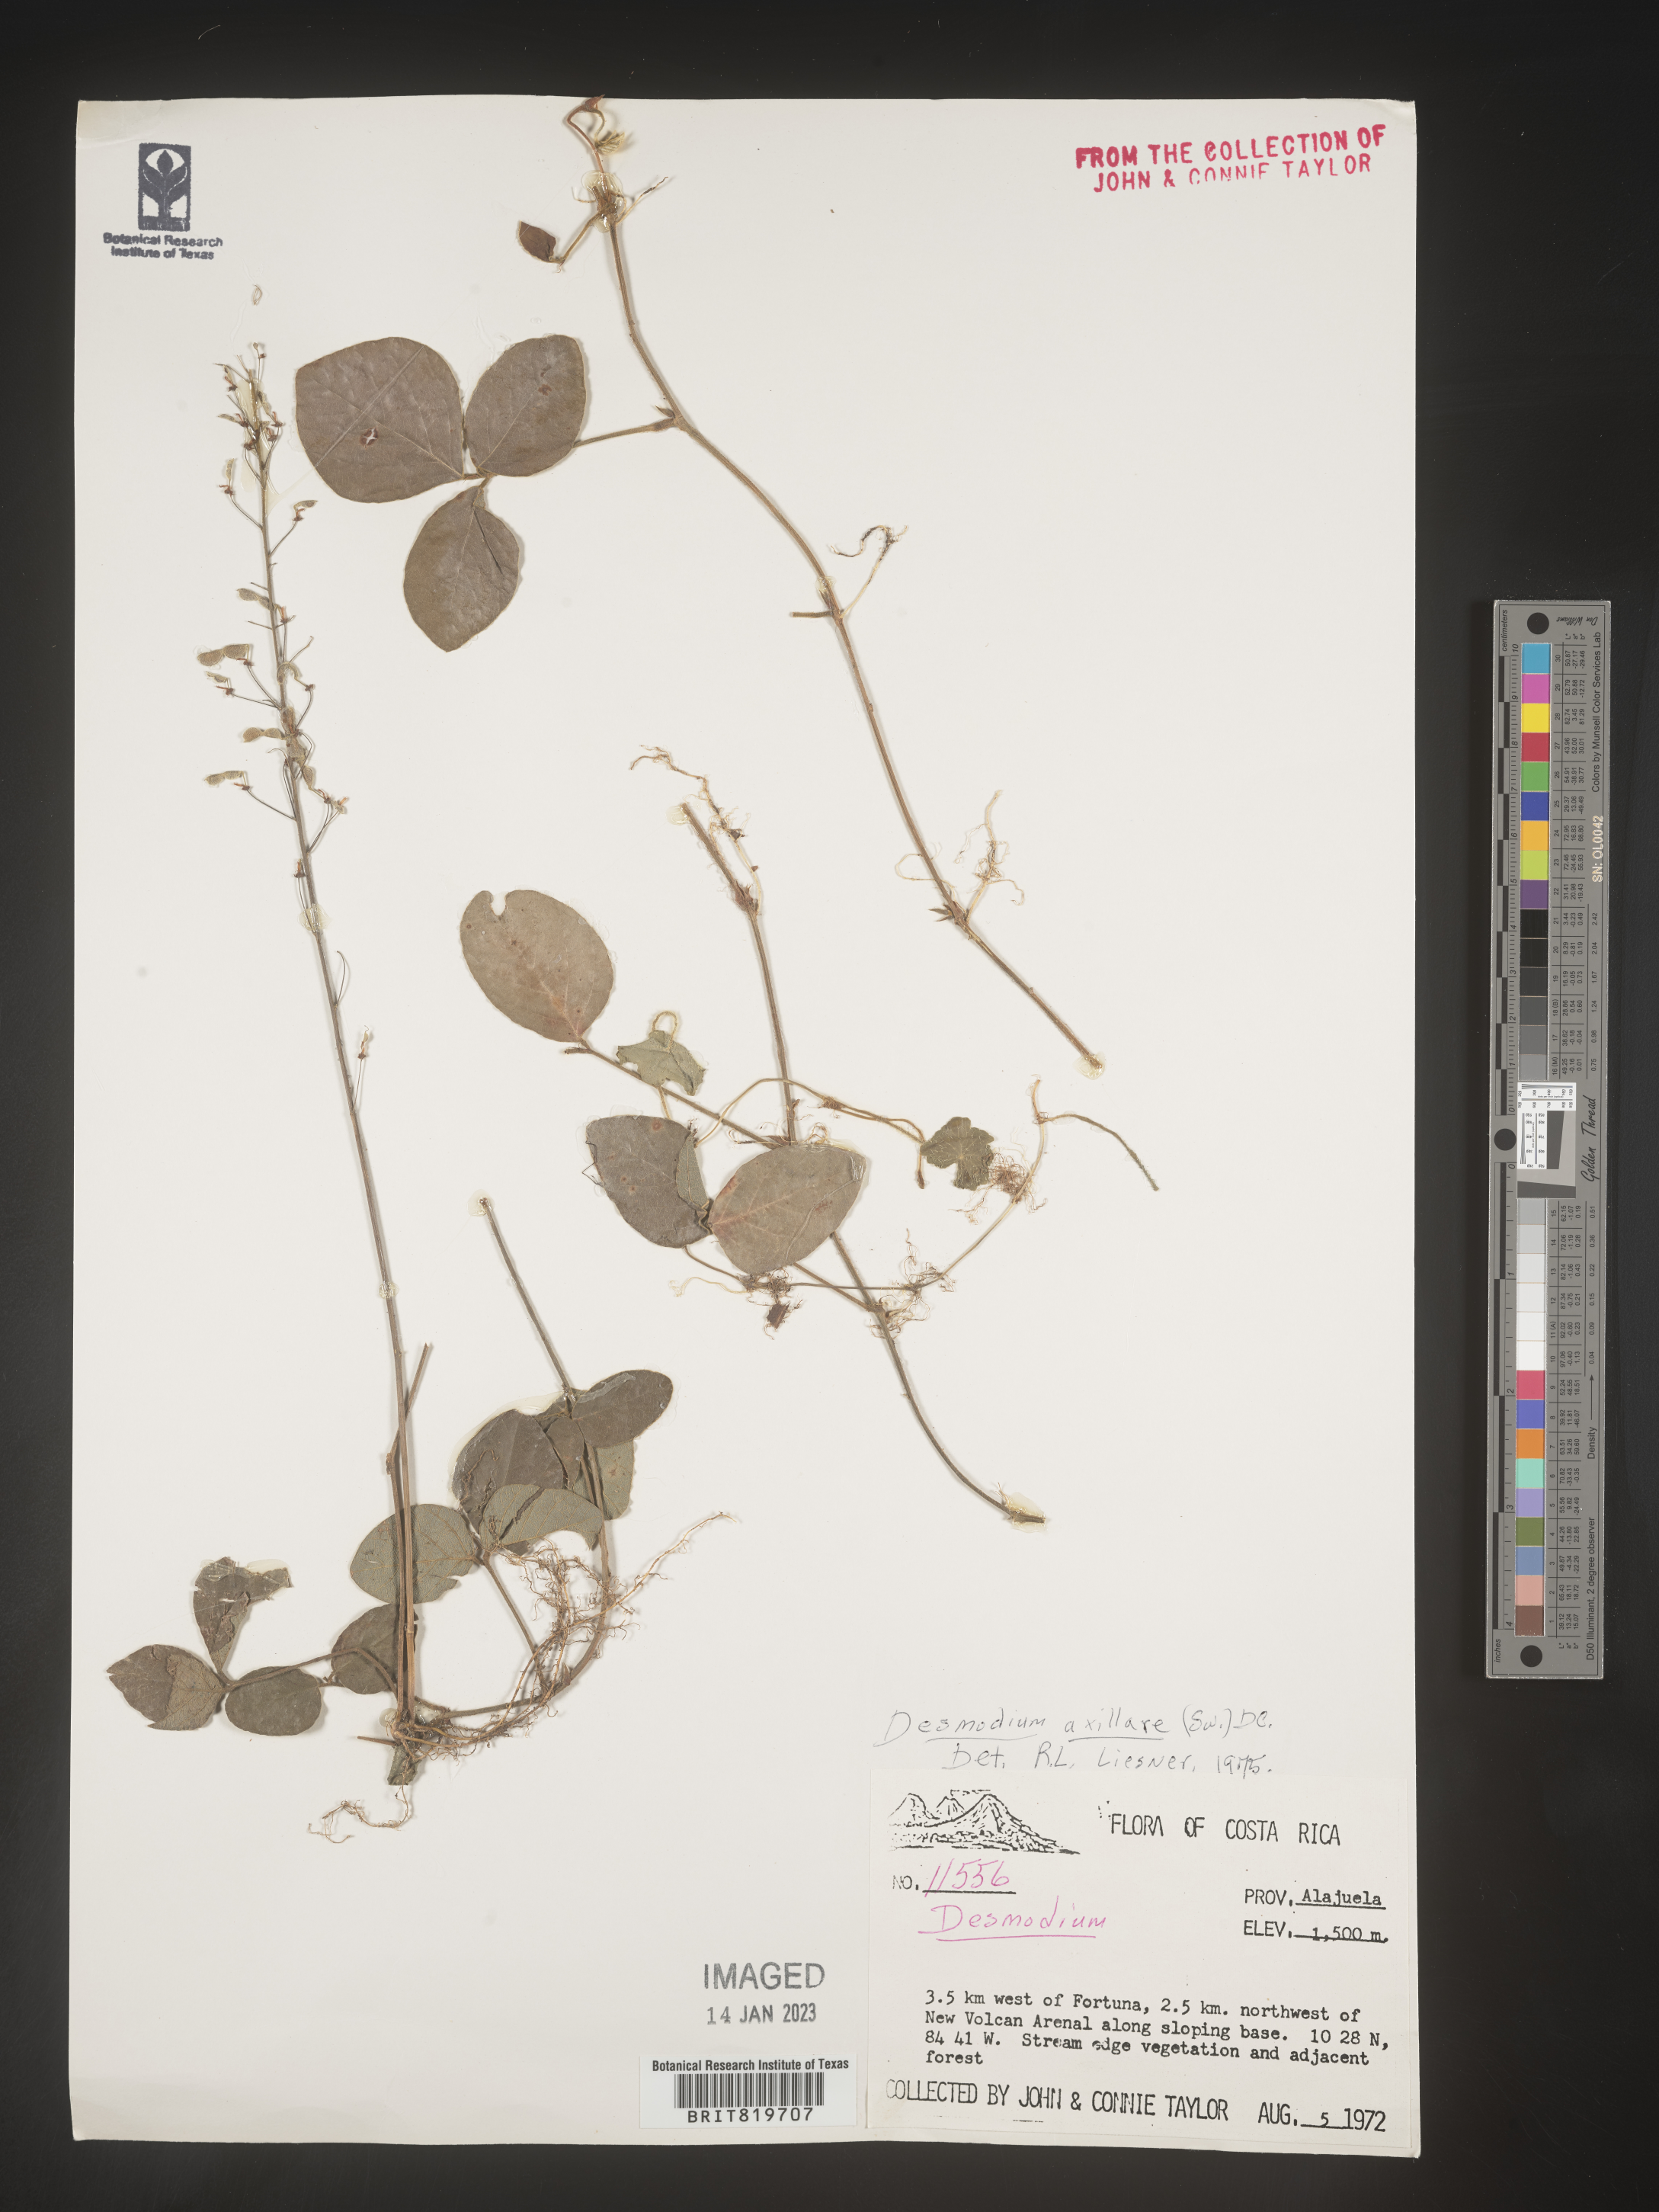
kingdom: Plantae
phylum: Tracheophyta
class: Magnoliopsida
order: Fabales
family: Fabaceae
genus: Desmodium
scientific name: Desmodium
